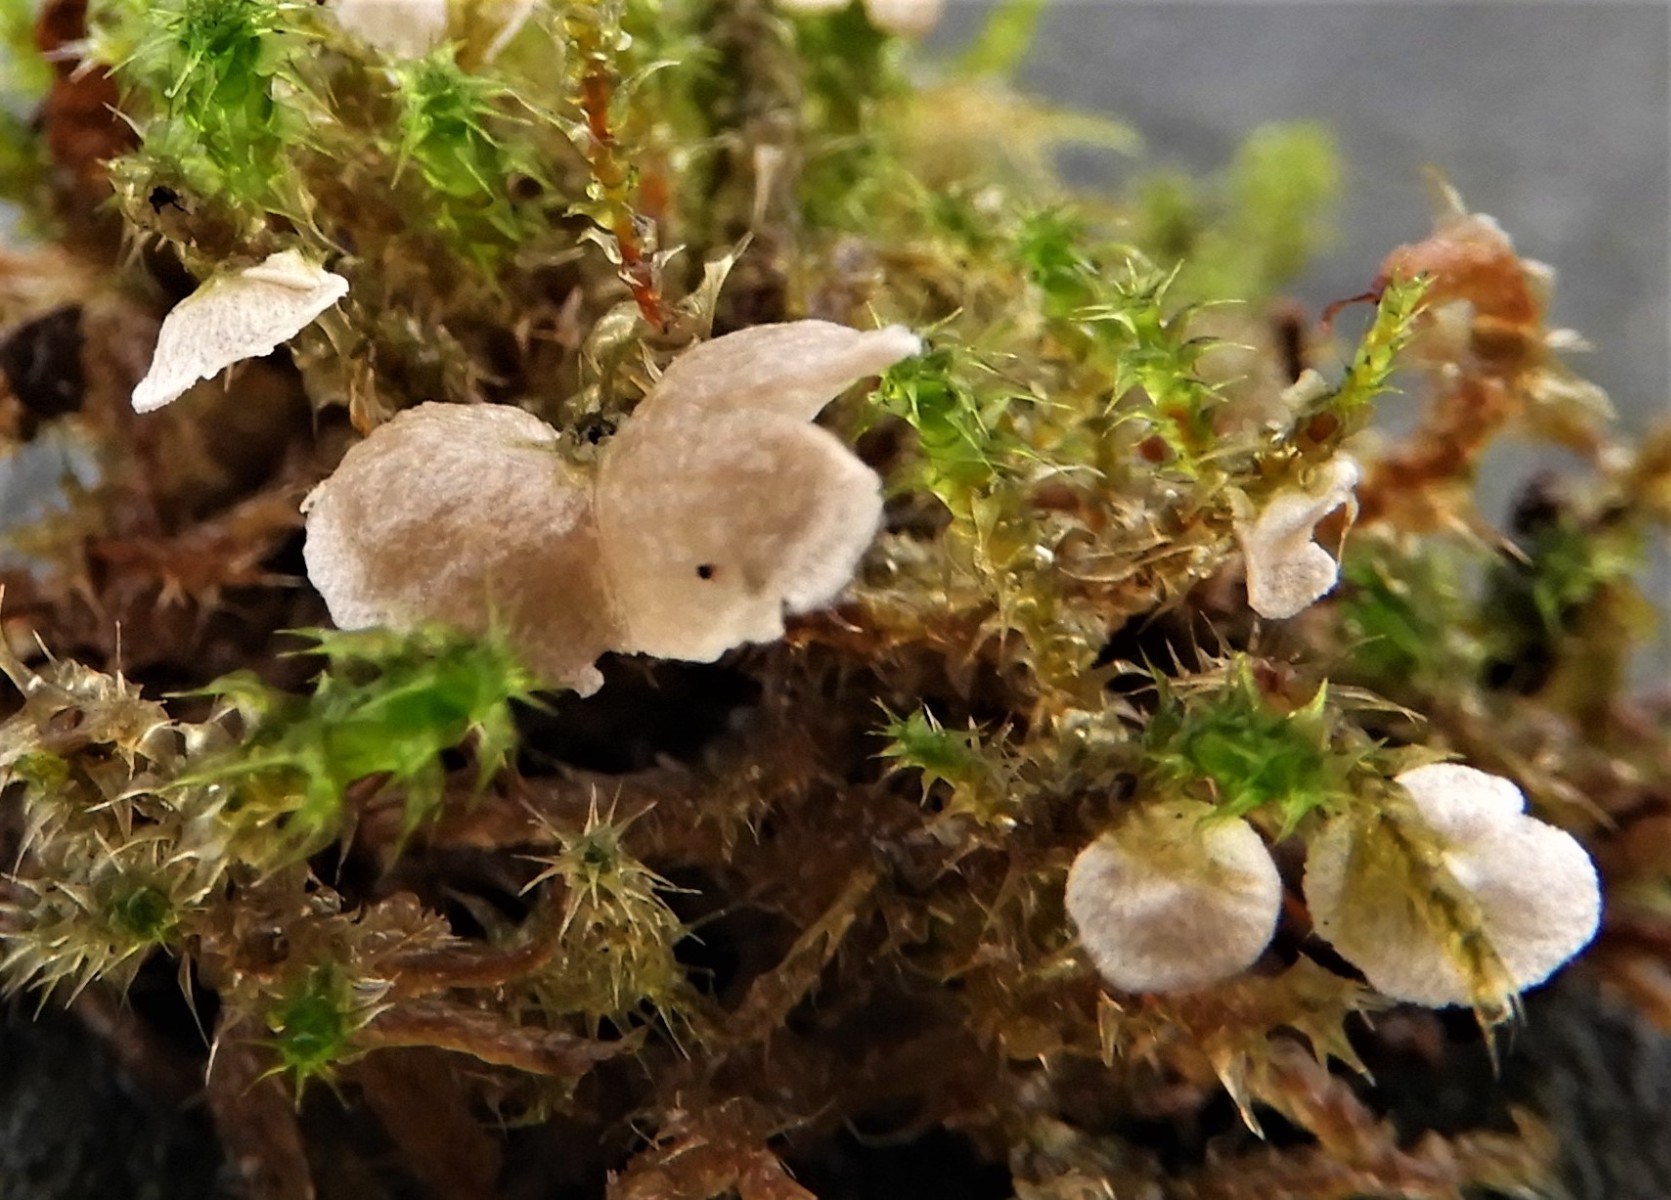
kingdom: Fungi
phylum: Basidiomycota
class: Agaricomycetes
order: Agaricales
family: Hygrophoraceae
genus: Arrhenia
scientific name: Arrhenia retiruga
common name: lille fontænehat
